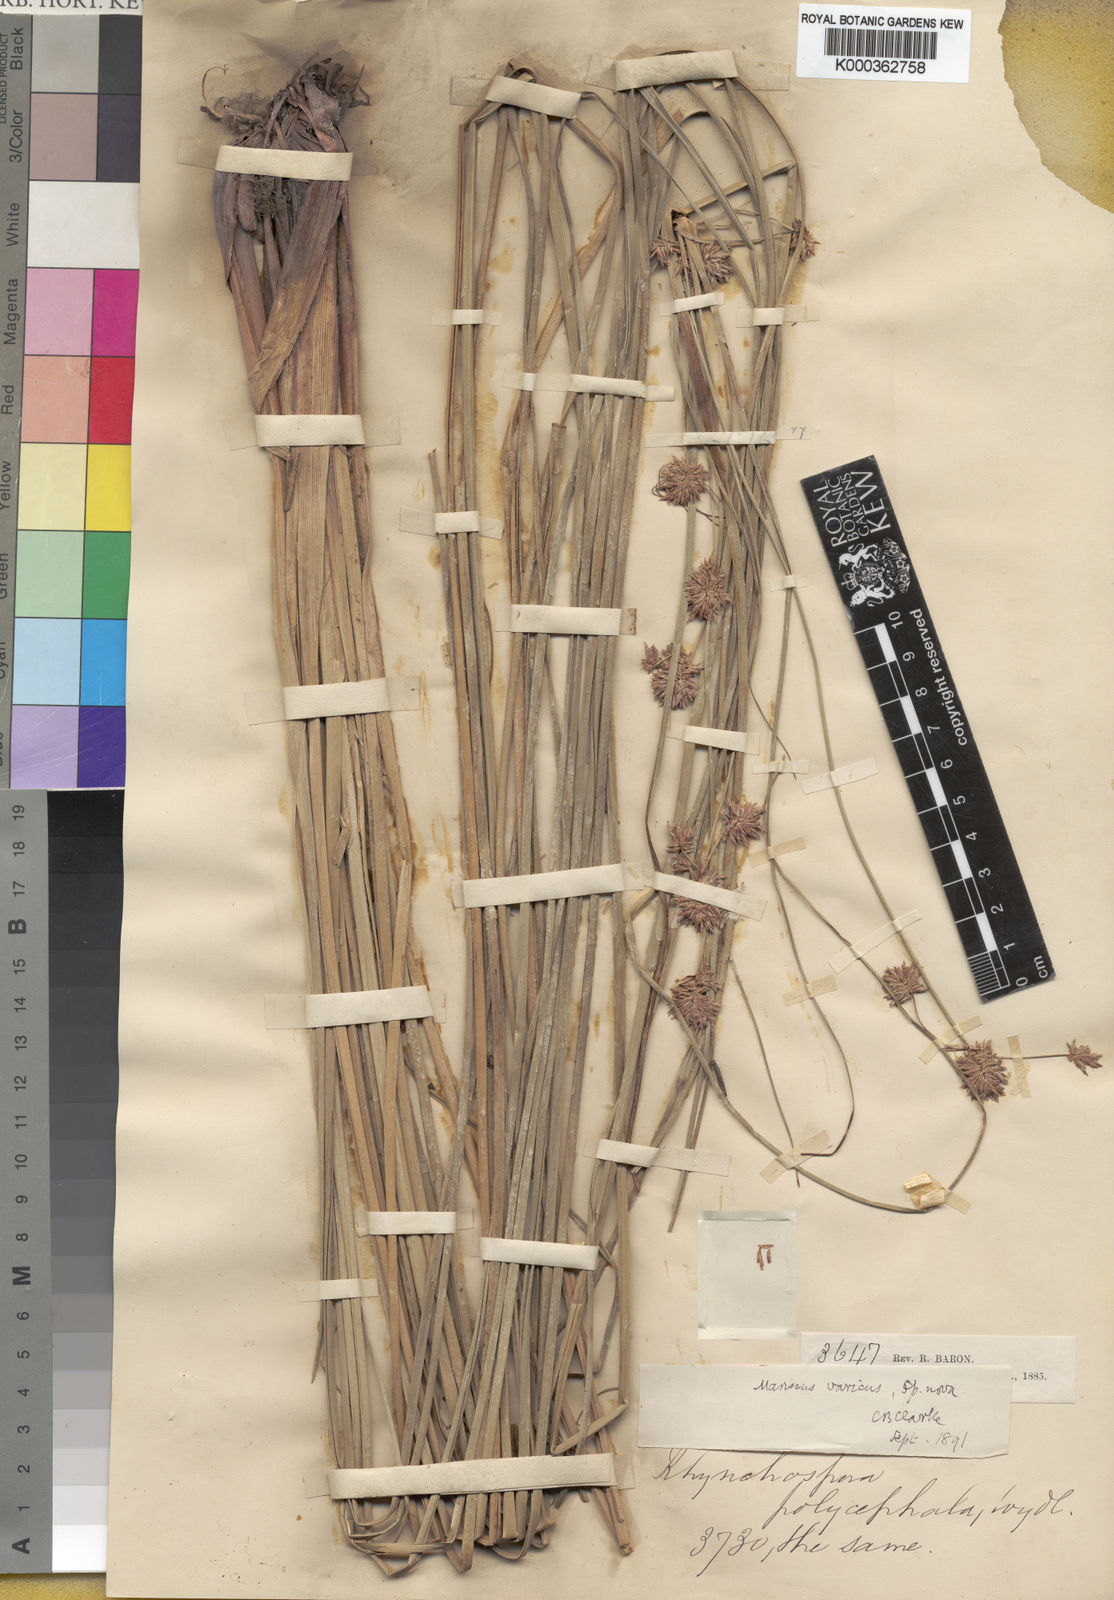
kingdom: Plantae
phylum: Tracheophyta
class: Liliopsida
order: Poales
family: Cyperaceae
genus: Cyperus
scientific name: Cyperus
